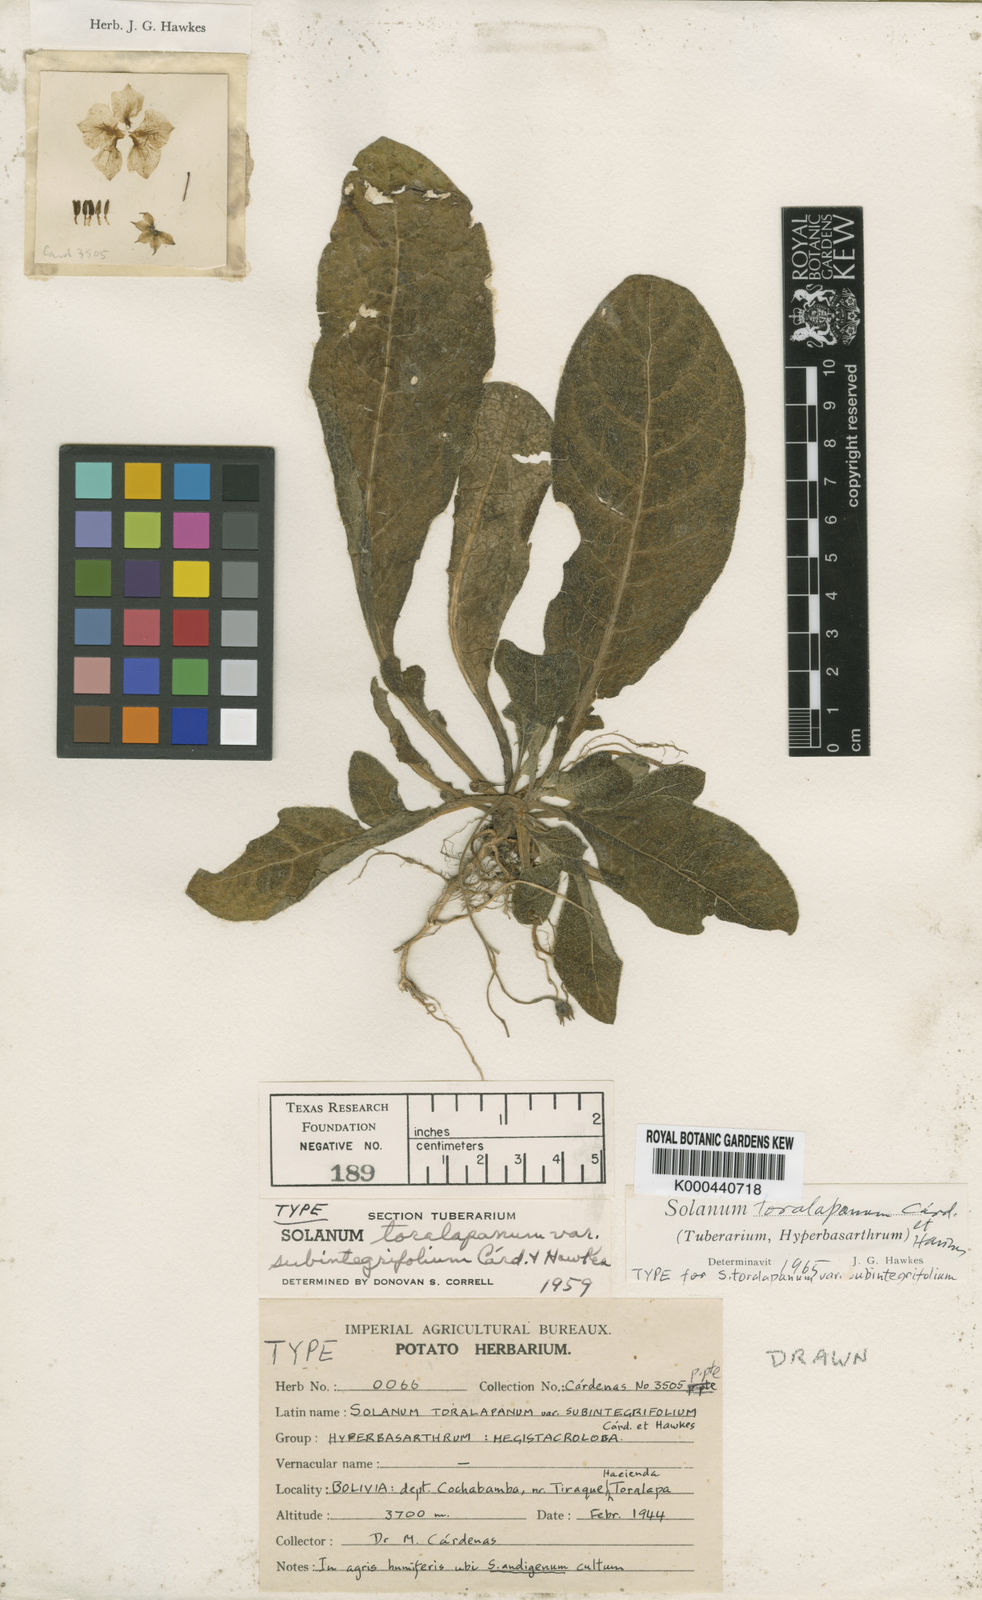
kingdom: Plantae
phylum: Tracheophyta
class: Magnoliopsida
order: Solanales
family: Solanaceae
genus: Solanum
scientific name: Solanum
